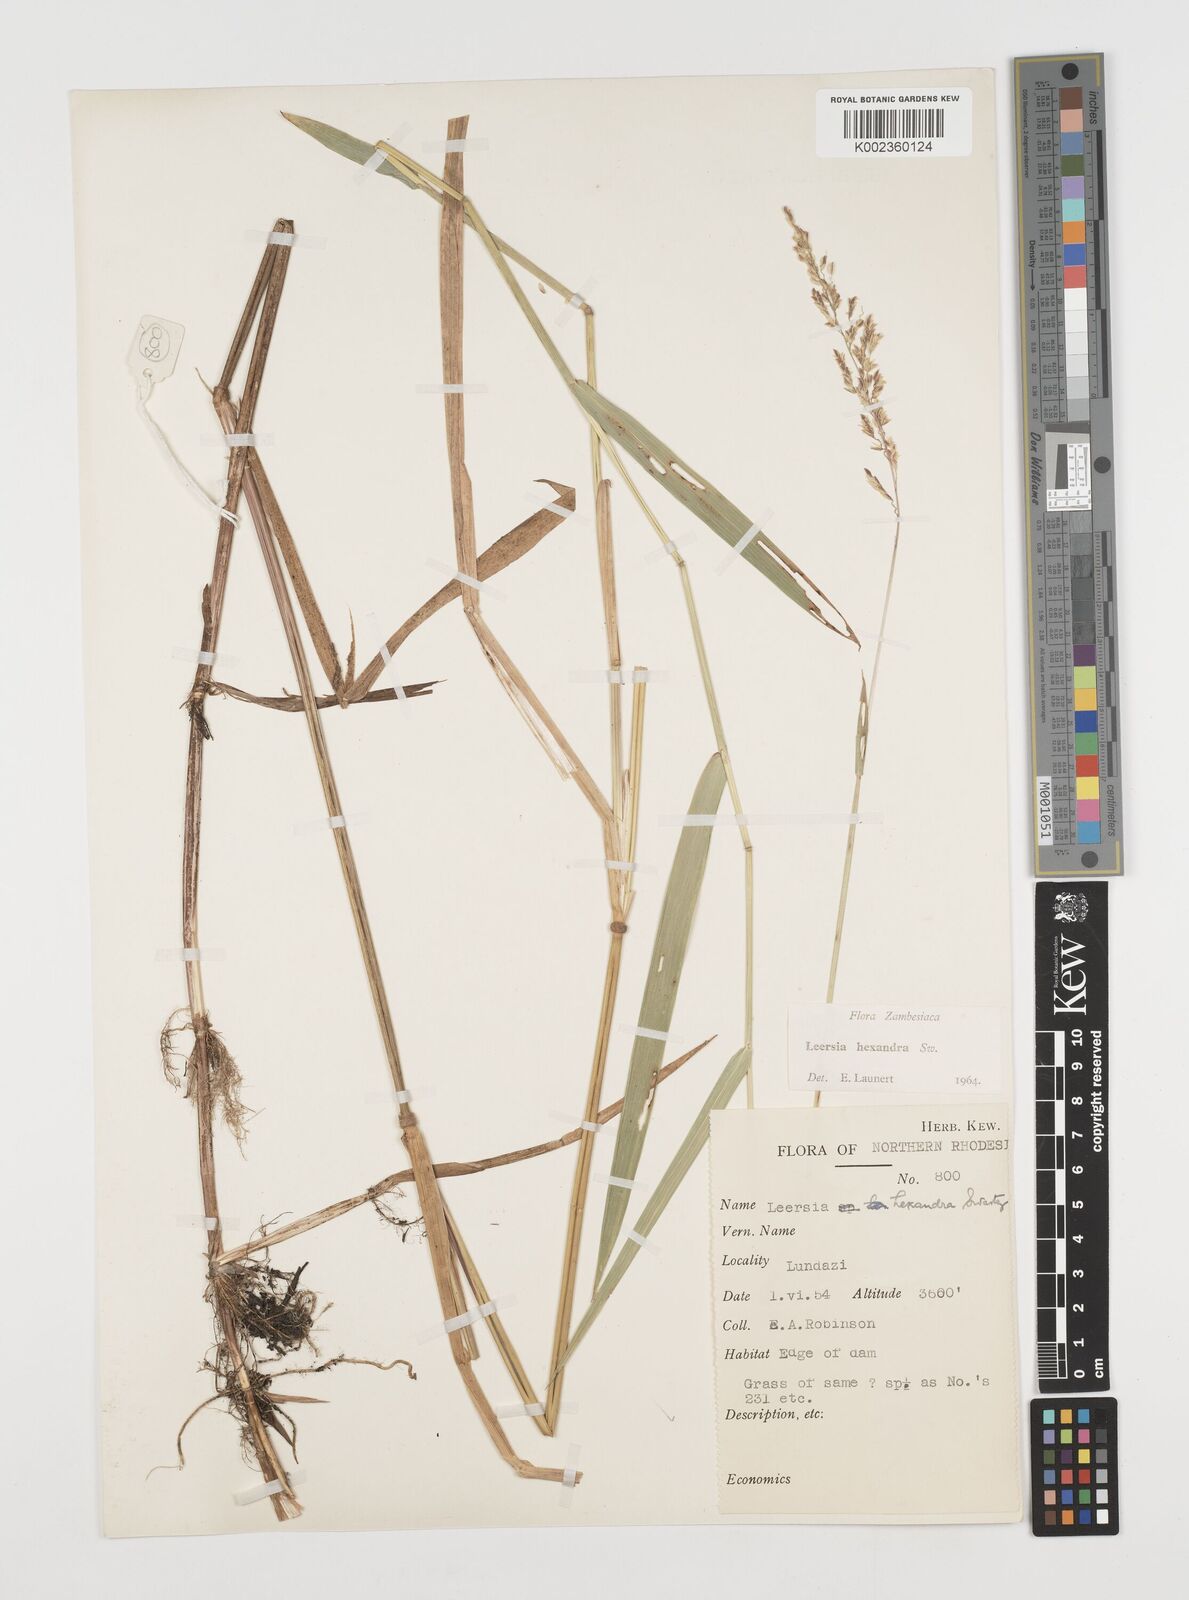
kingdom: Plantae
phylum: Tracheophyta
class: Liliopsida
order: Poales
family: Poaceae
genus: Leersia
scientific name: Leersia hexandra
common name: Southern cut grass
